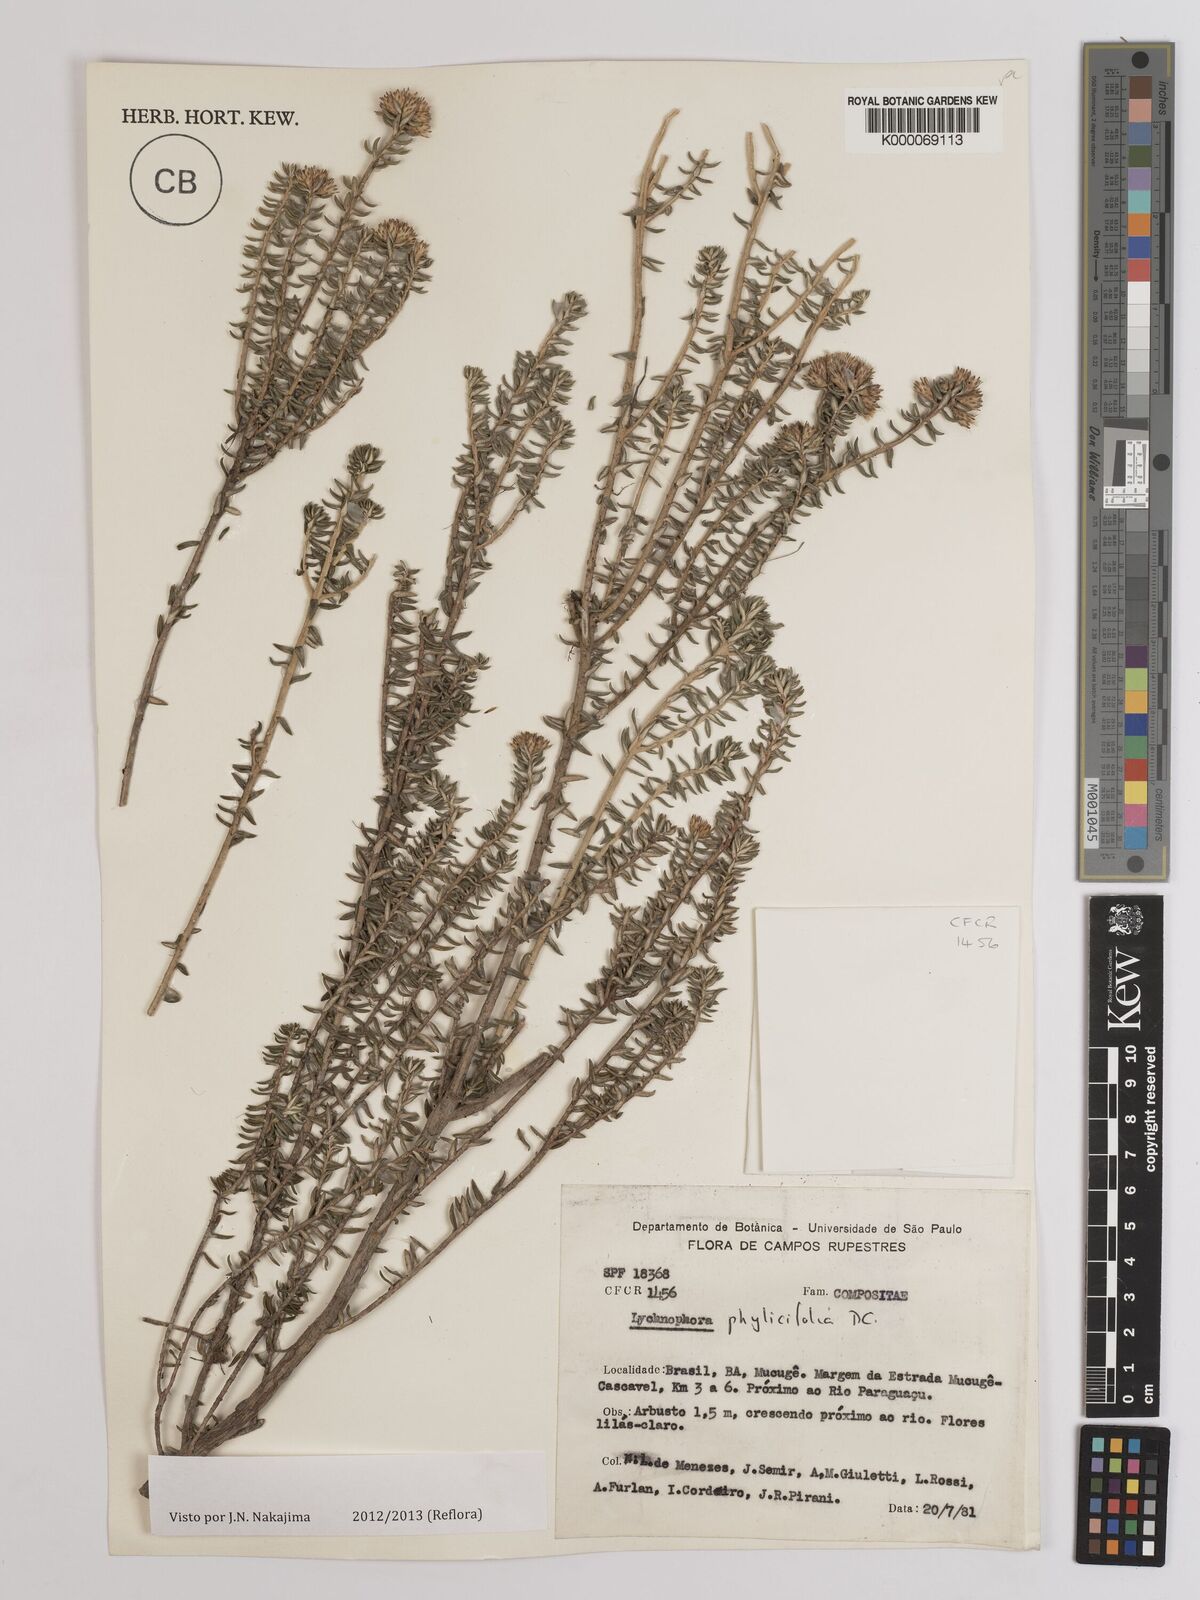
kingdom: Plantae
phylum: Tracheophyta
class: Magnoliopsida
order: Asterales
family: Asteraceae
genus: Lychnophora
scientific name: Lychnophora phylicifolia
